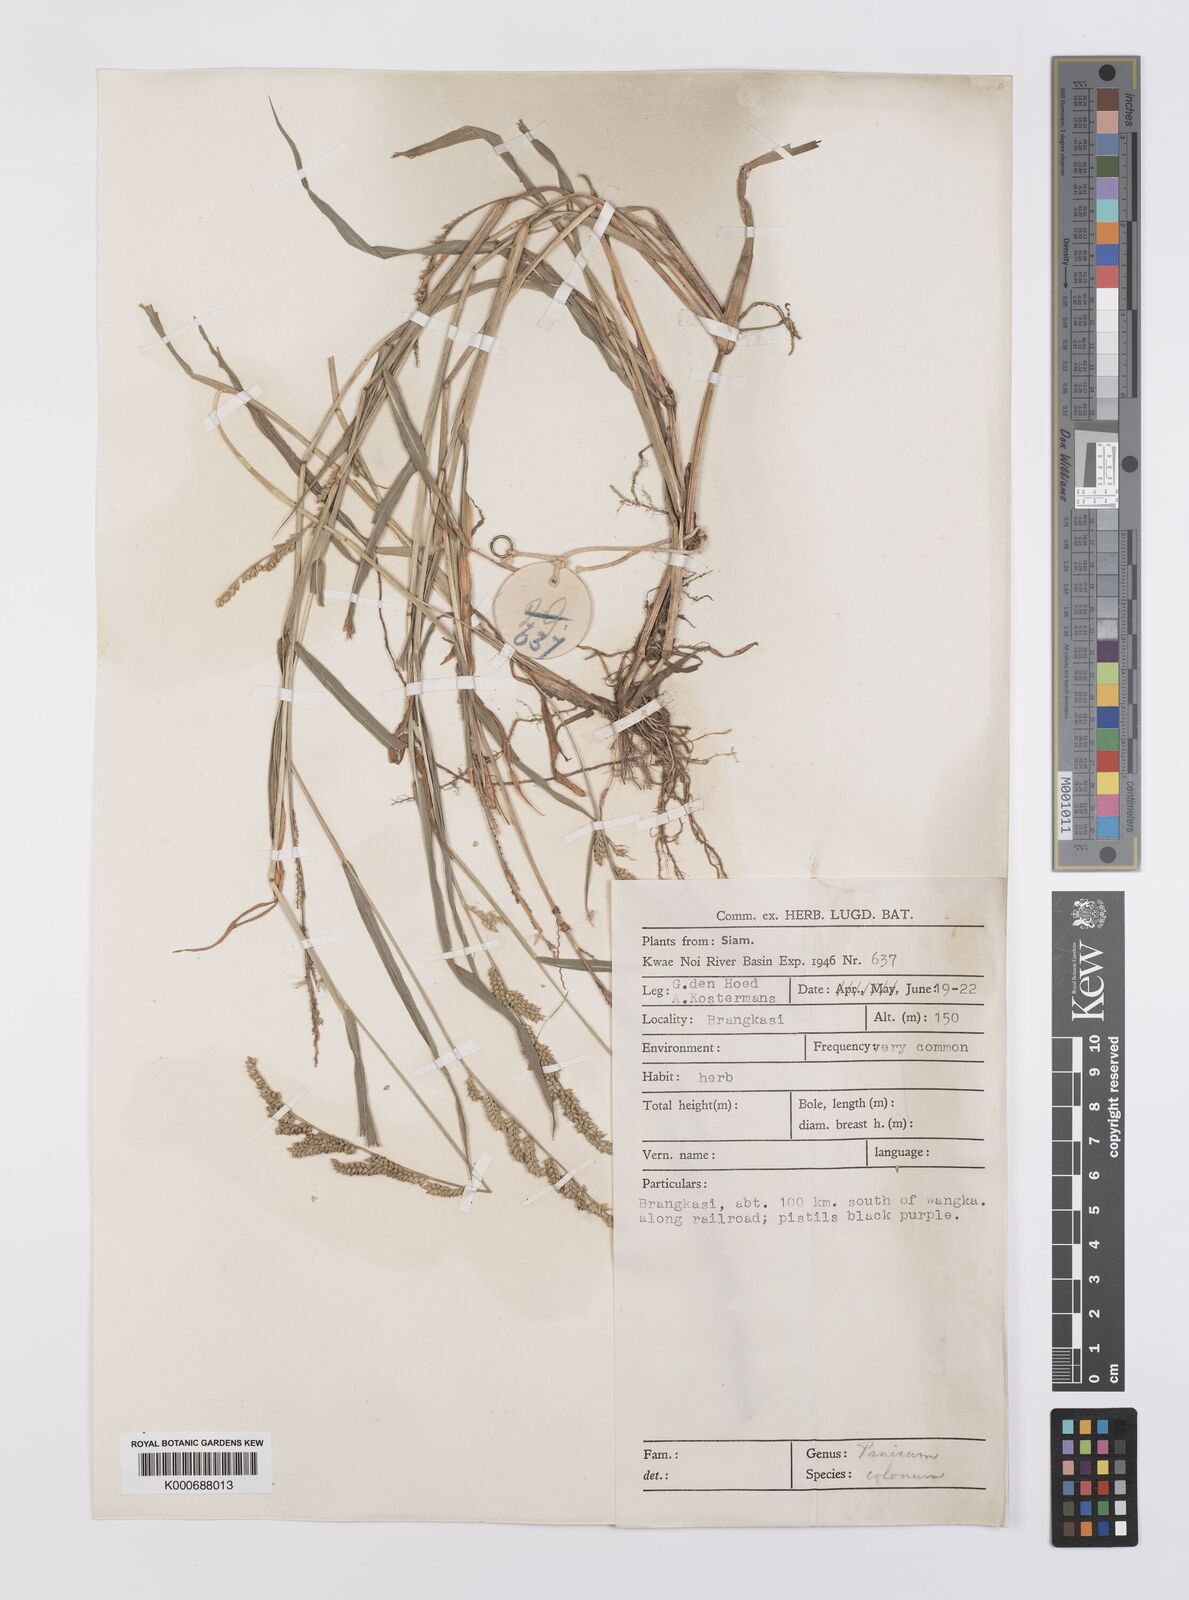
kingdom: Plantae
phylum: Tracheophyta
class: Liliopsida
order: Poales
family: Poaceae
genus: Echinochloa
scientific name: Echinochloa colonum
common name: Jungle rice
